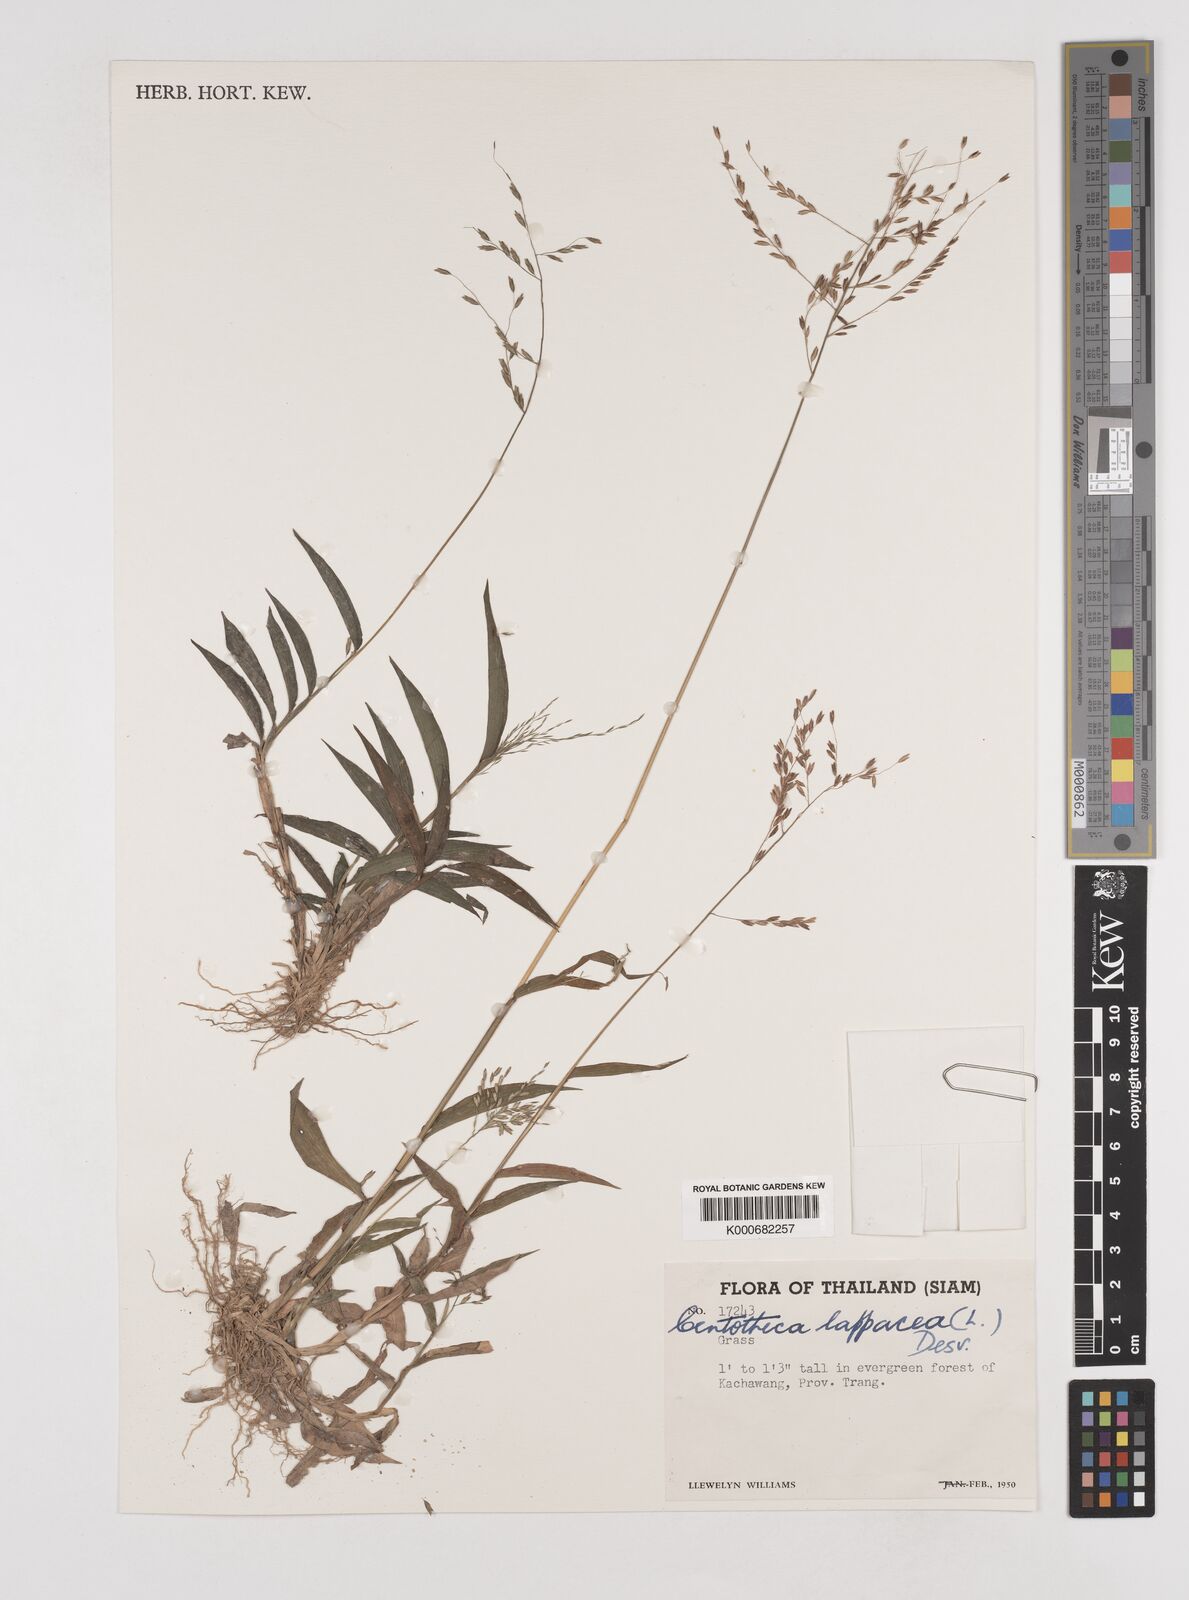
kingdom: Plantae
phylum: Tracheophyta
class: Liliopsida
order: Poales
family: Poaceae
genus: Centotheca
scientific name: Centotheca lappacea
